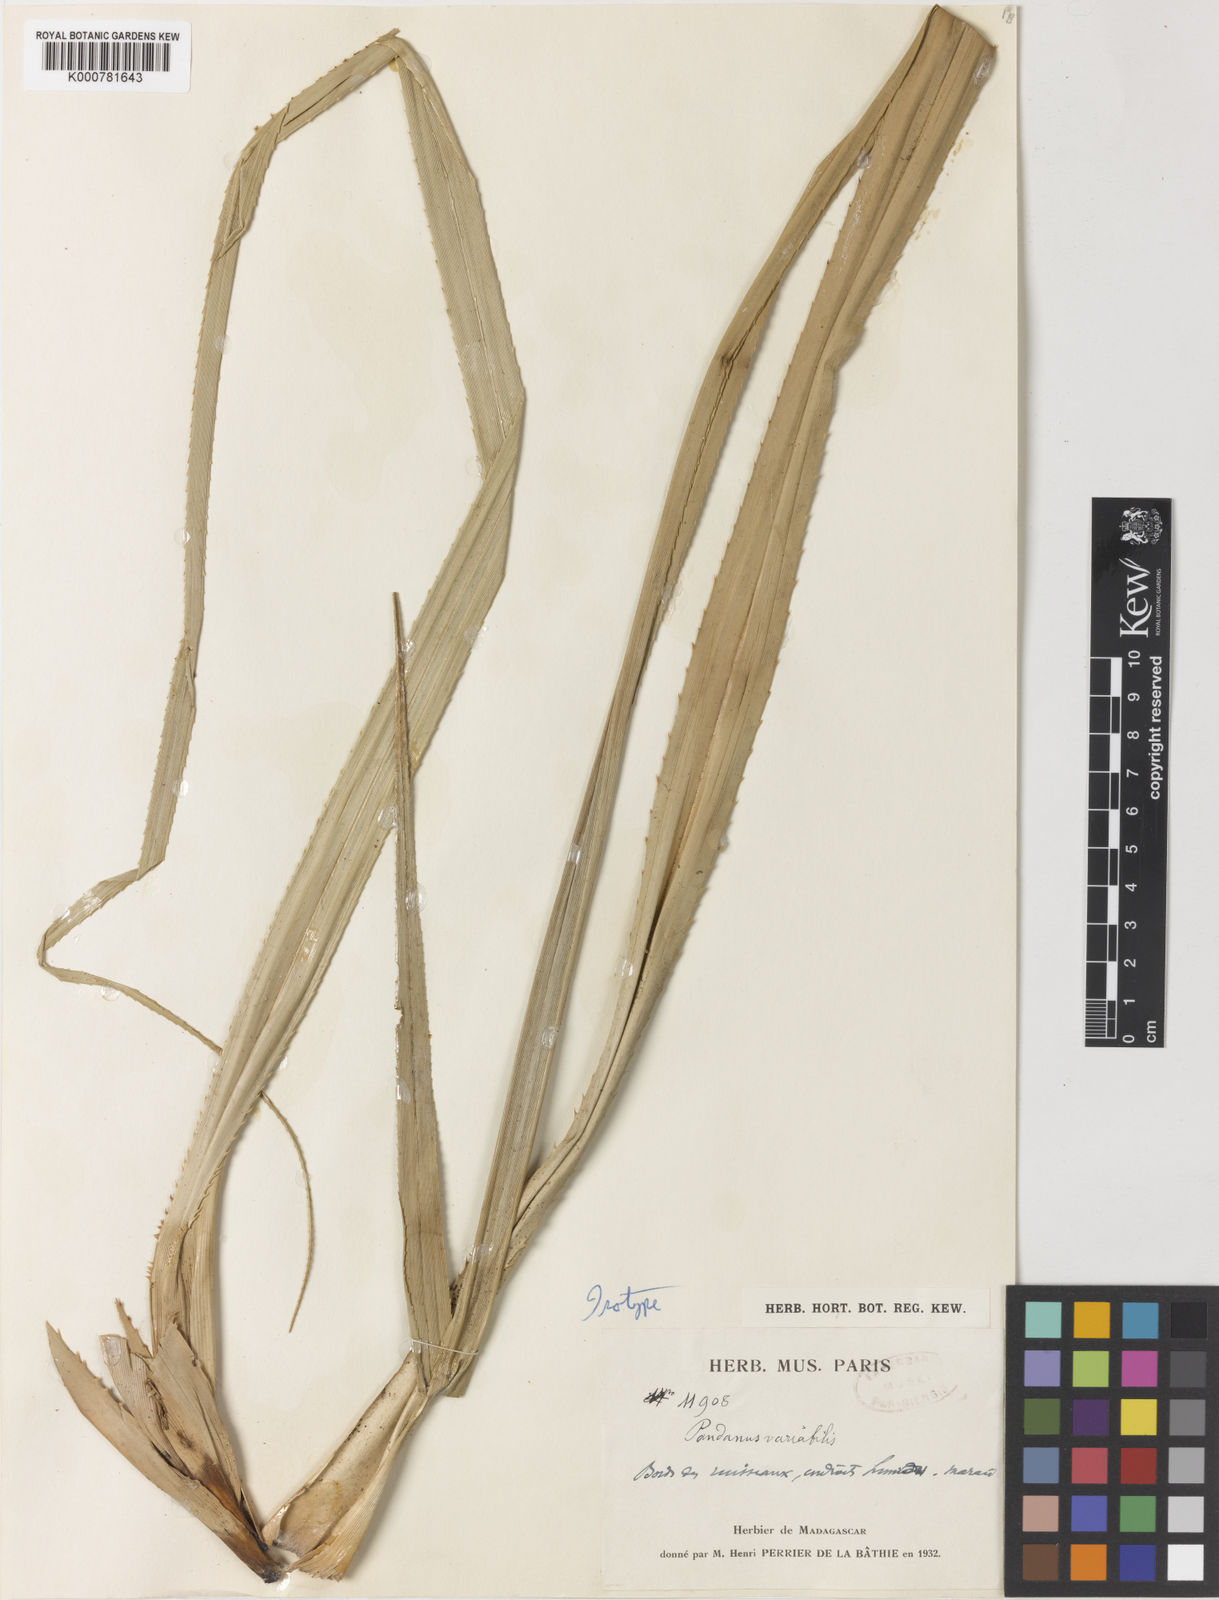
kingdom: Plantae
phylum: Tracheophyta
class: Liliopsida
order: Pandanales
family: Pandanaceae
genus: Pandanus
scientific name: Pandanus variabilis
